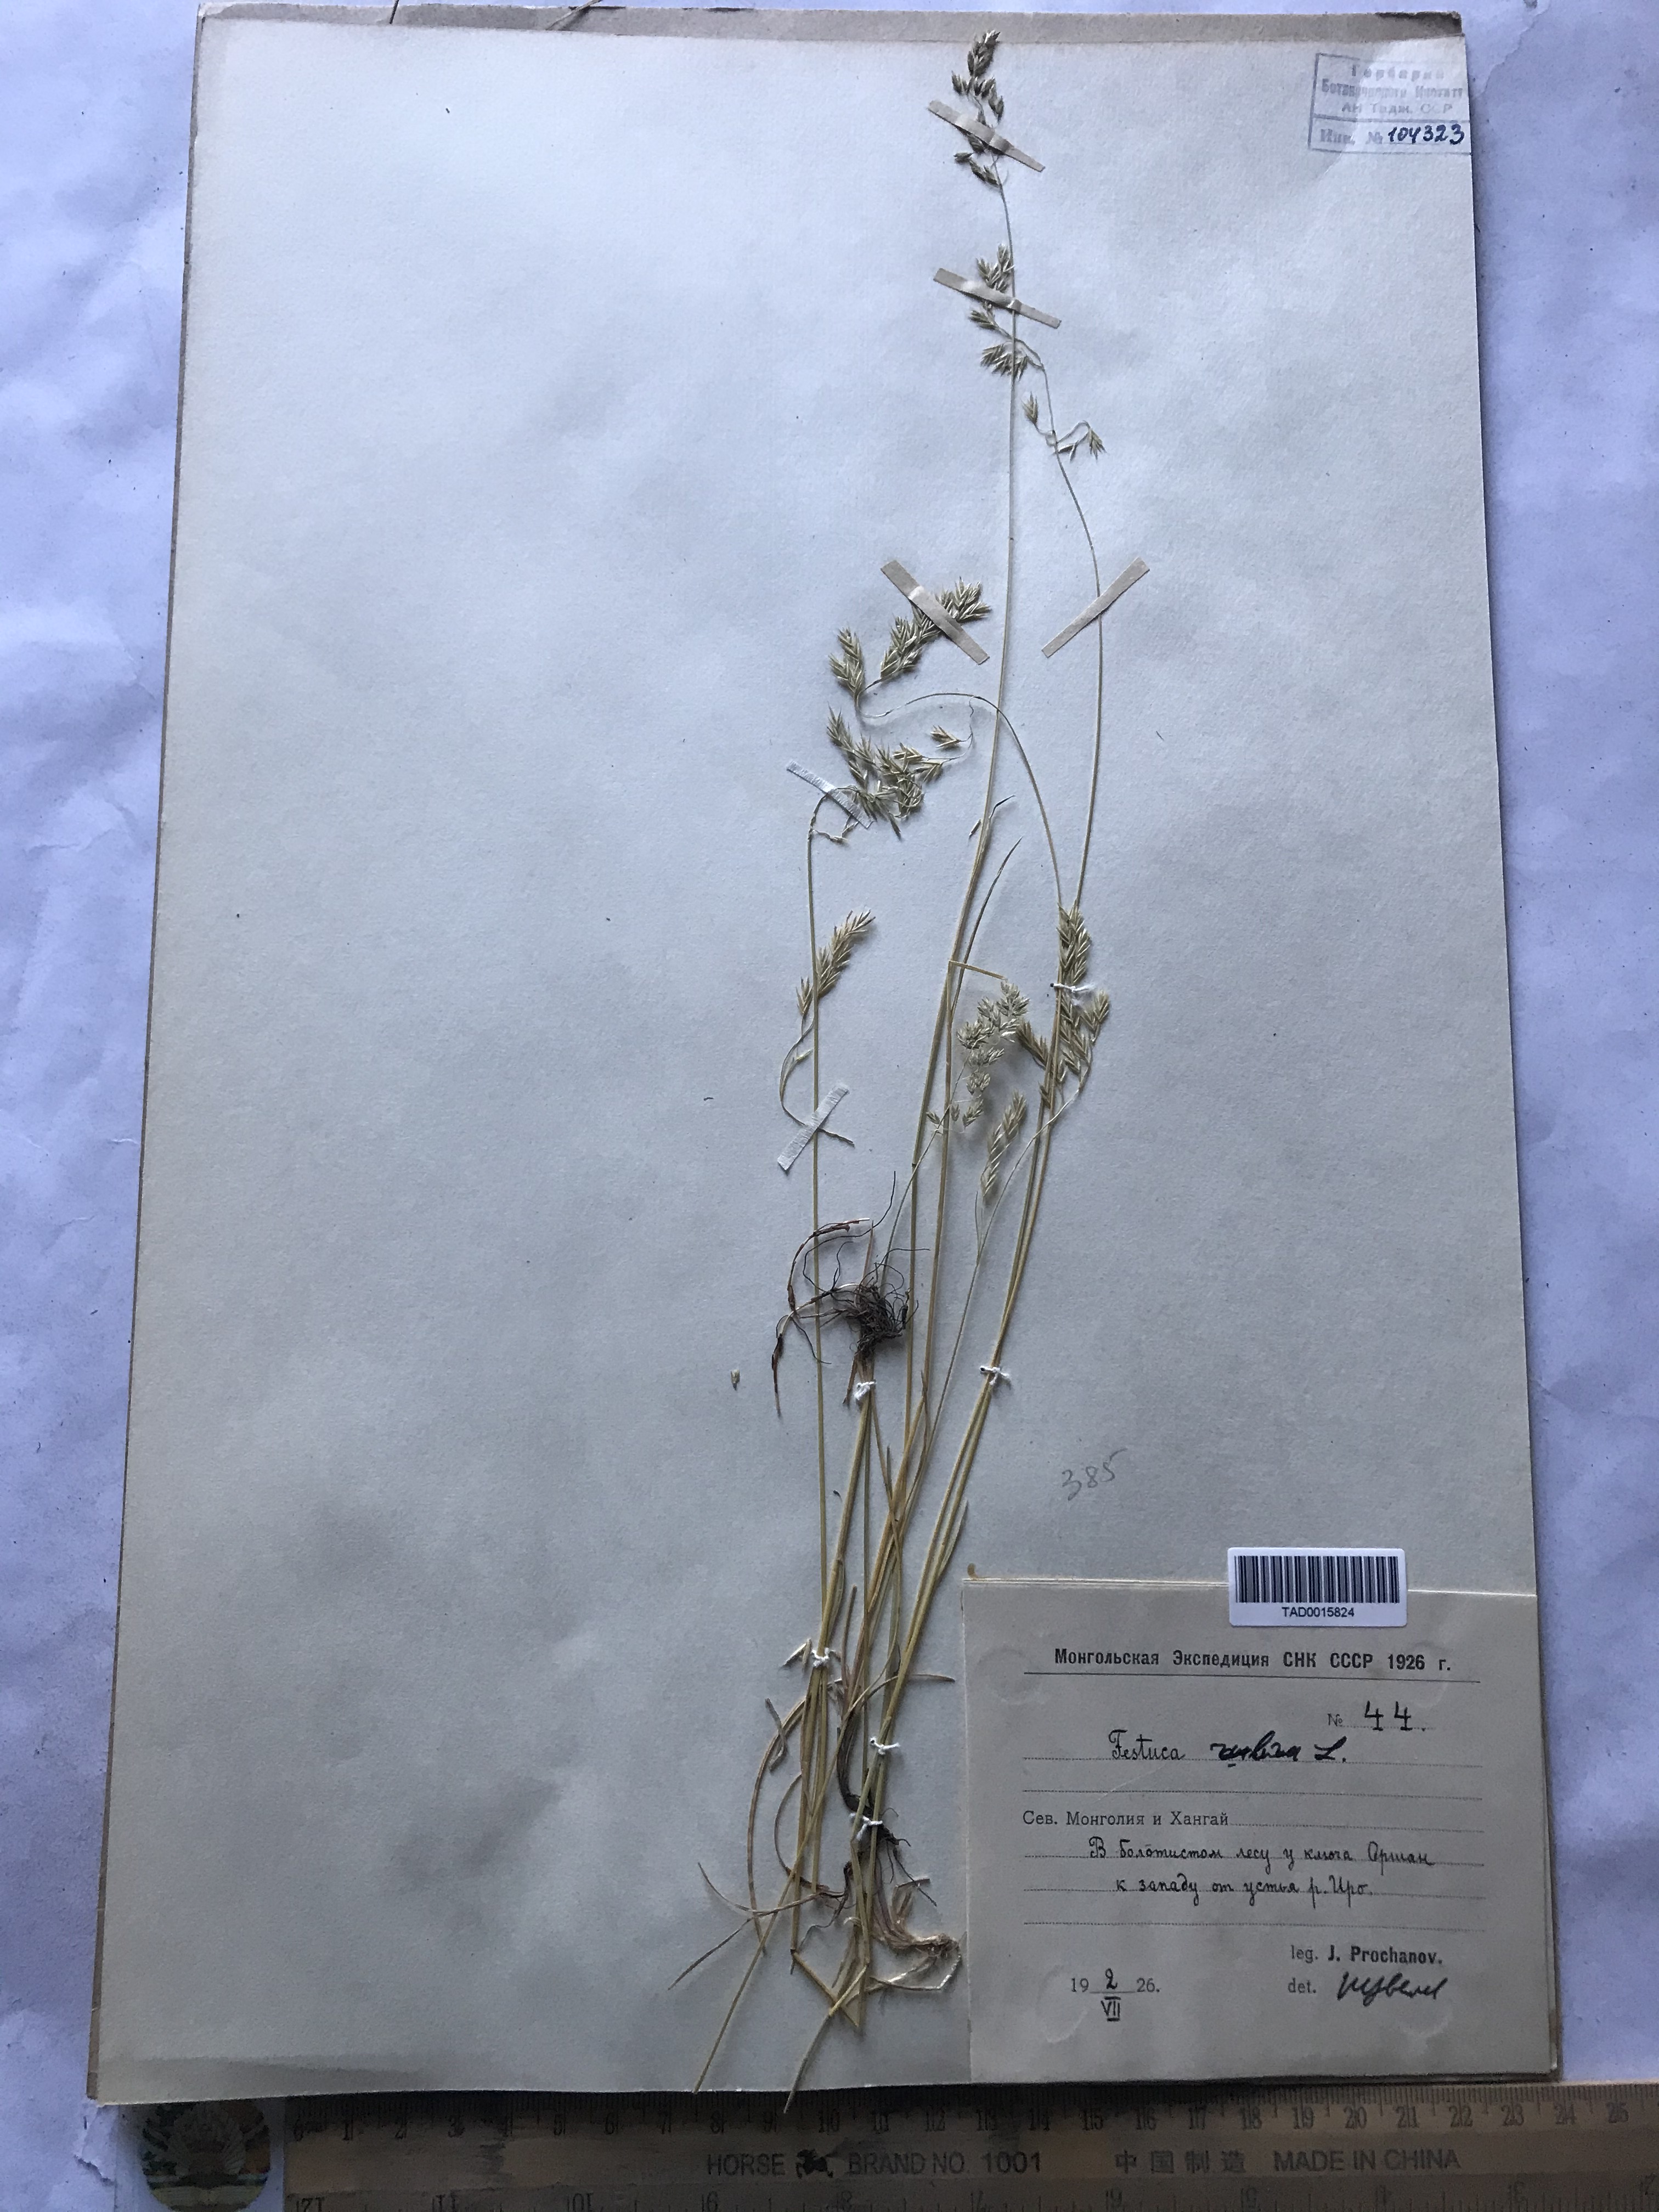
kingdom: Plantae
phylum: Tracheophyta
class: Liliopsida
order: Poales
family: Poaceae
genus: Festuca
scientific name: Festuca rubra
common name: Red fescue
